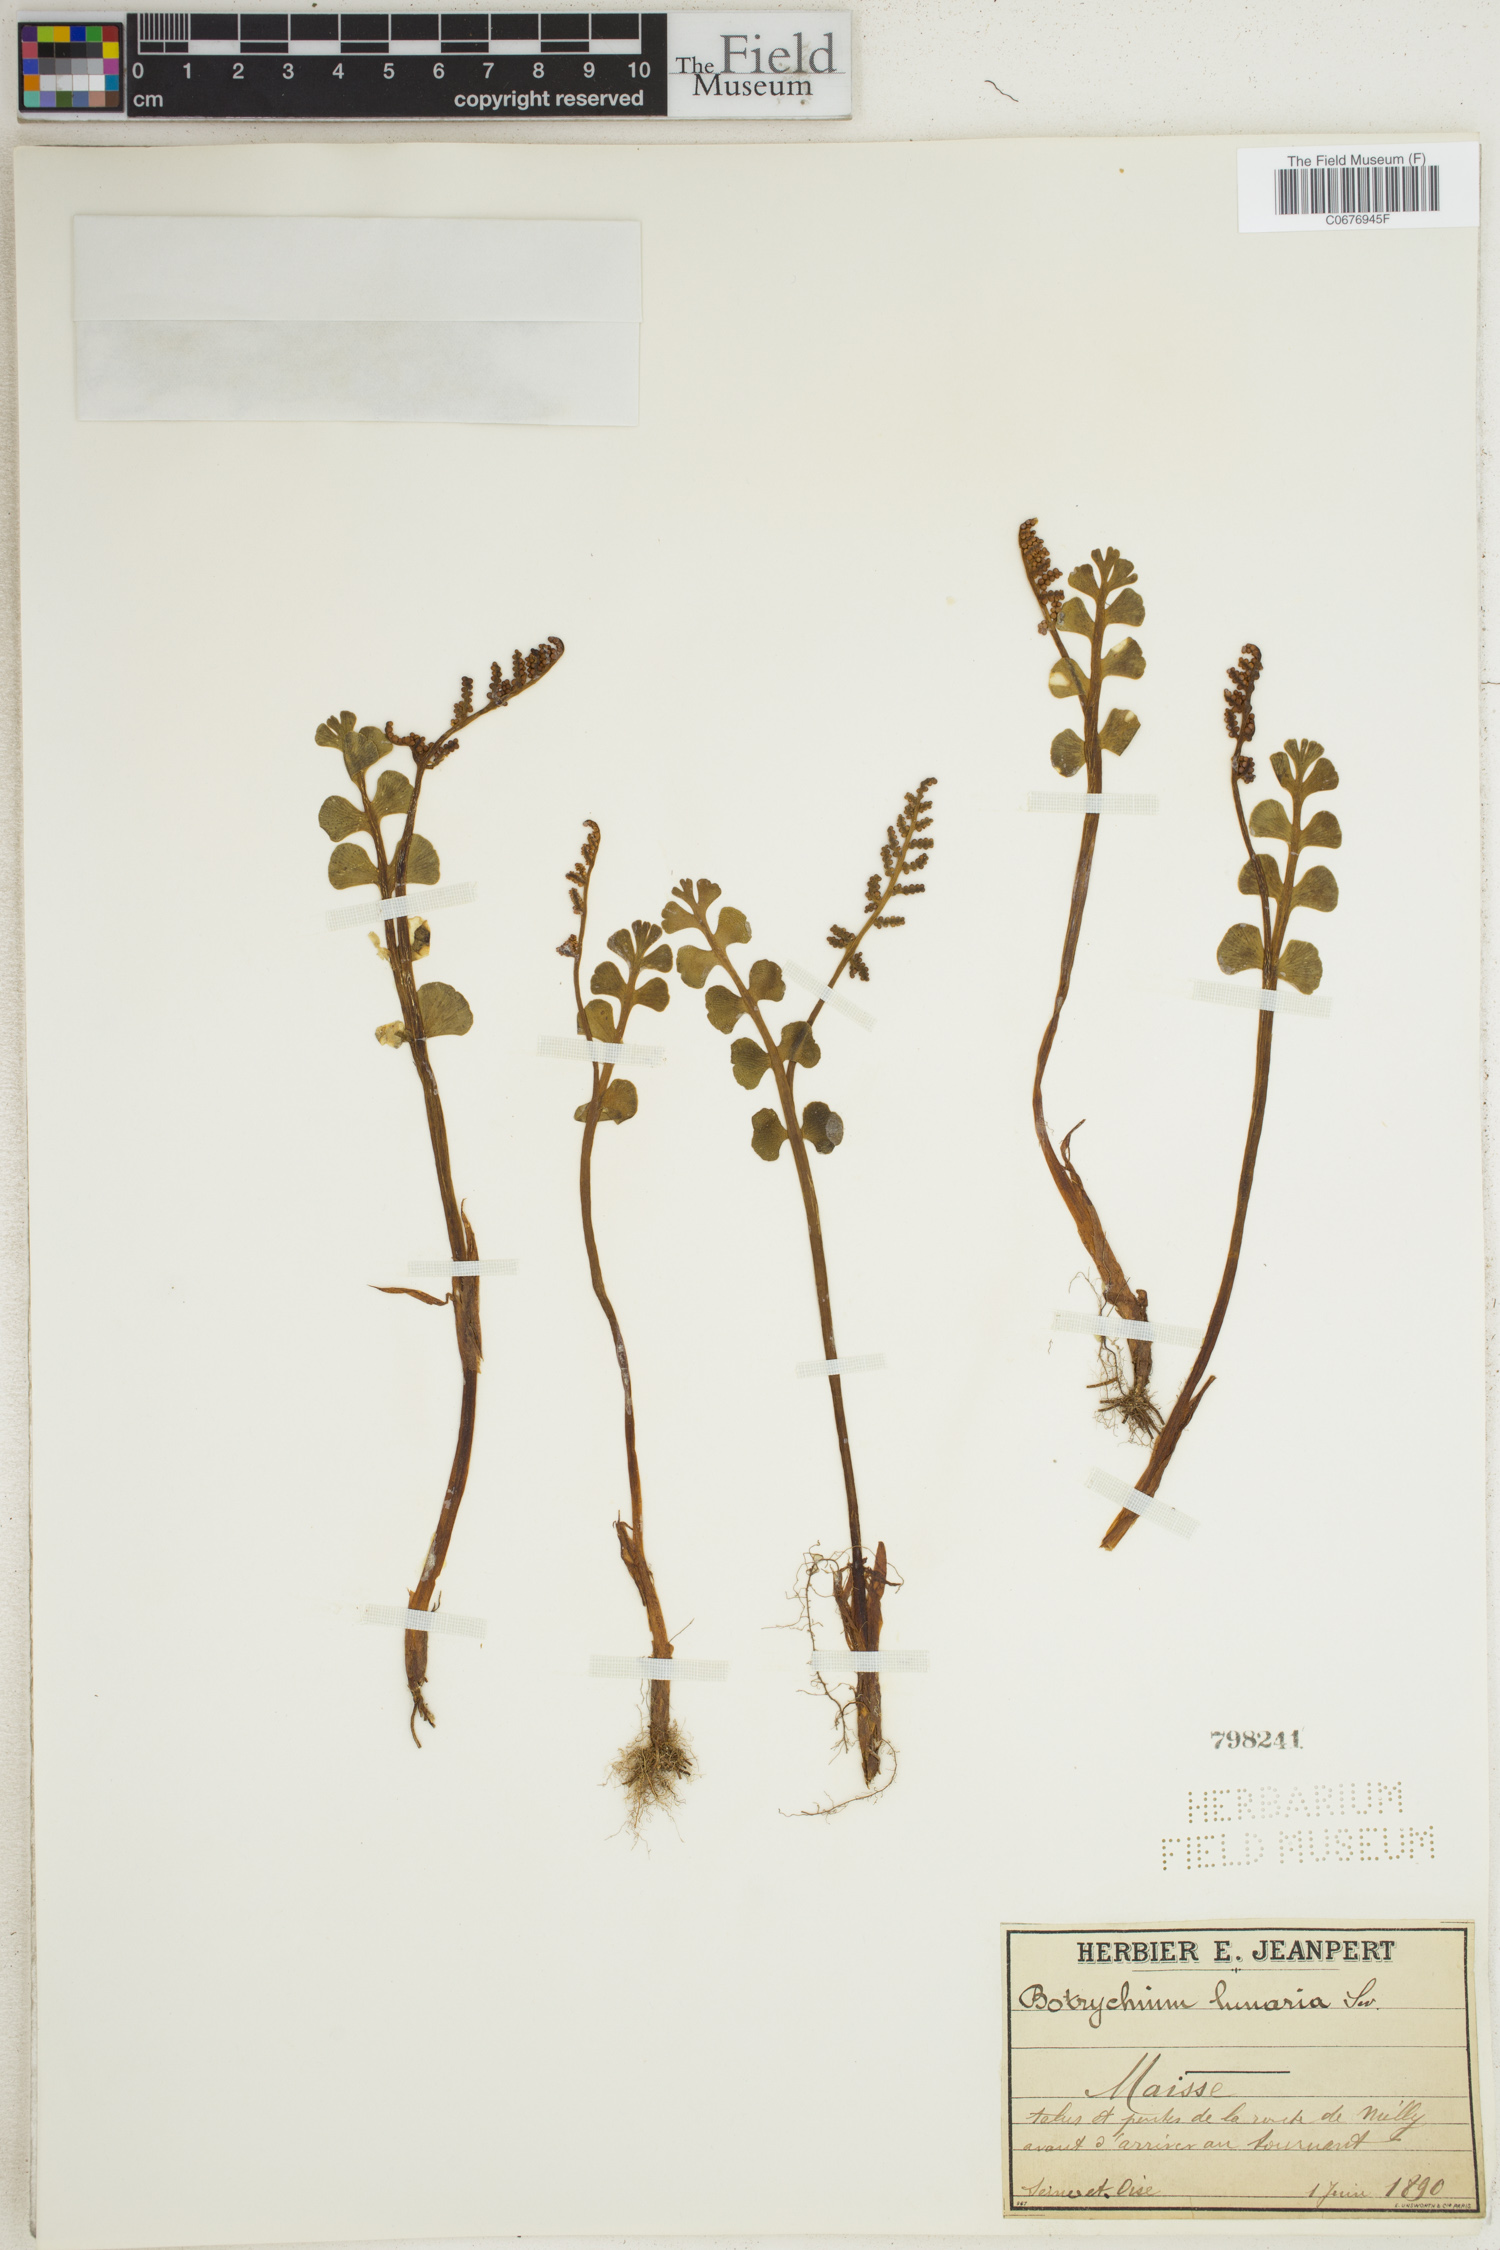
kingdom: Plantae
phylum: Tracheophyta
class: Polypodiopsida
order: Ophioglossales
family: Ophioglossaceae
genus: Botrychium
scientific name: Botrychium lunaria
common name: Moonwort
